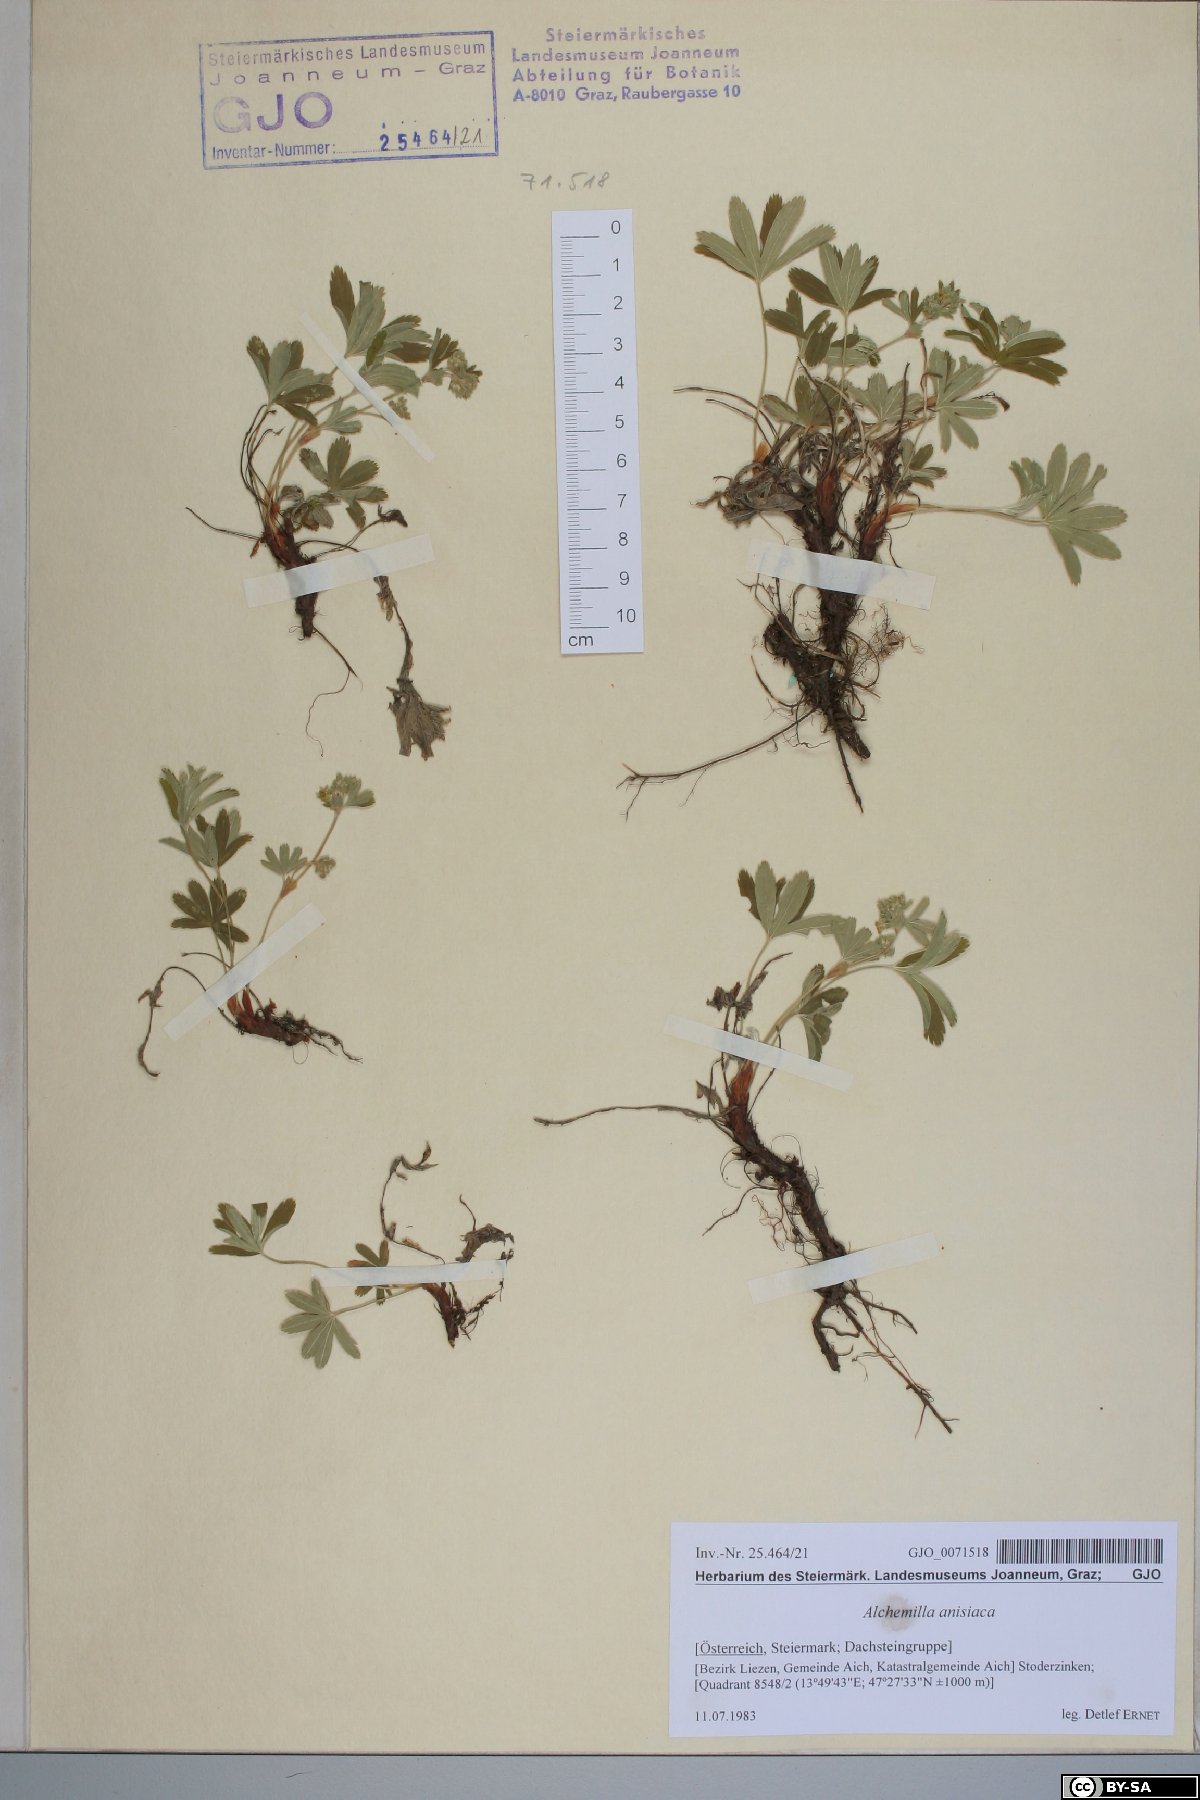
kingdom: Plantae
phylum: Tracheophyta
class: Magnoliopsida
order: Rosales
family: Rosaceae
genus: Alchemilla
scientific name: Alchemilla anisiaca
